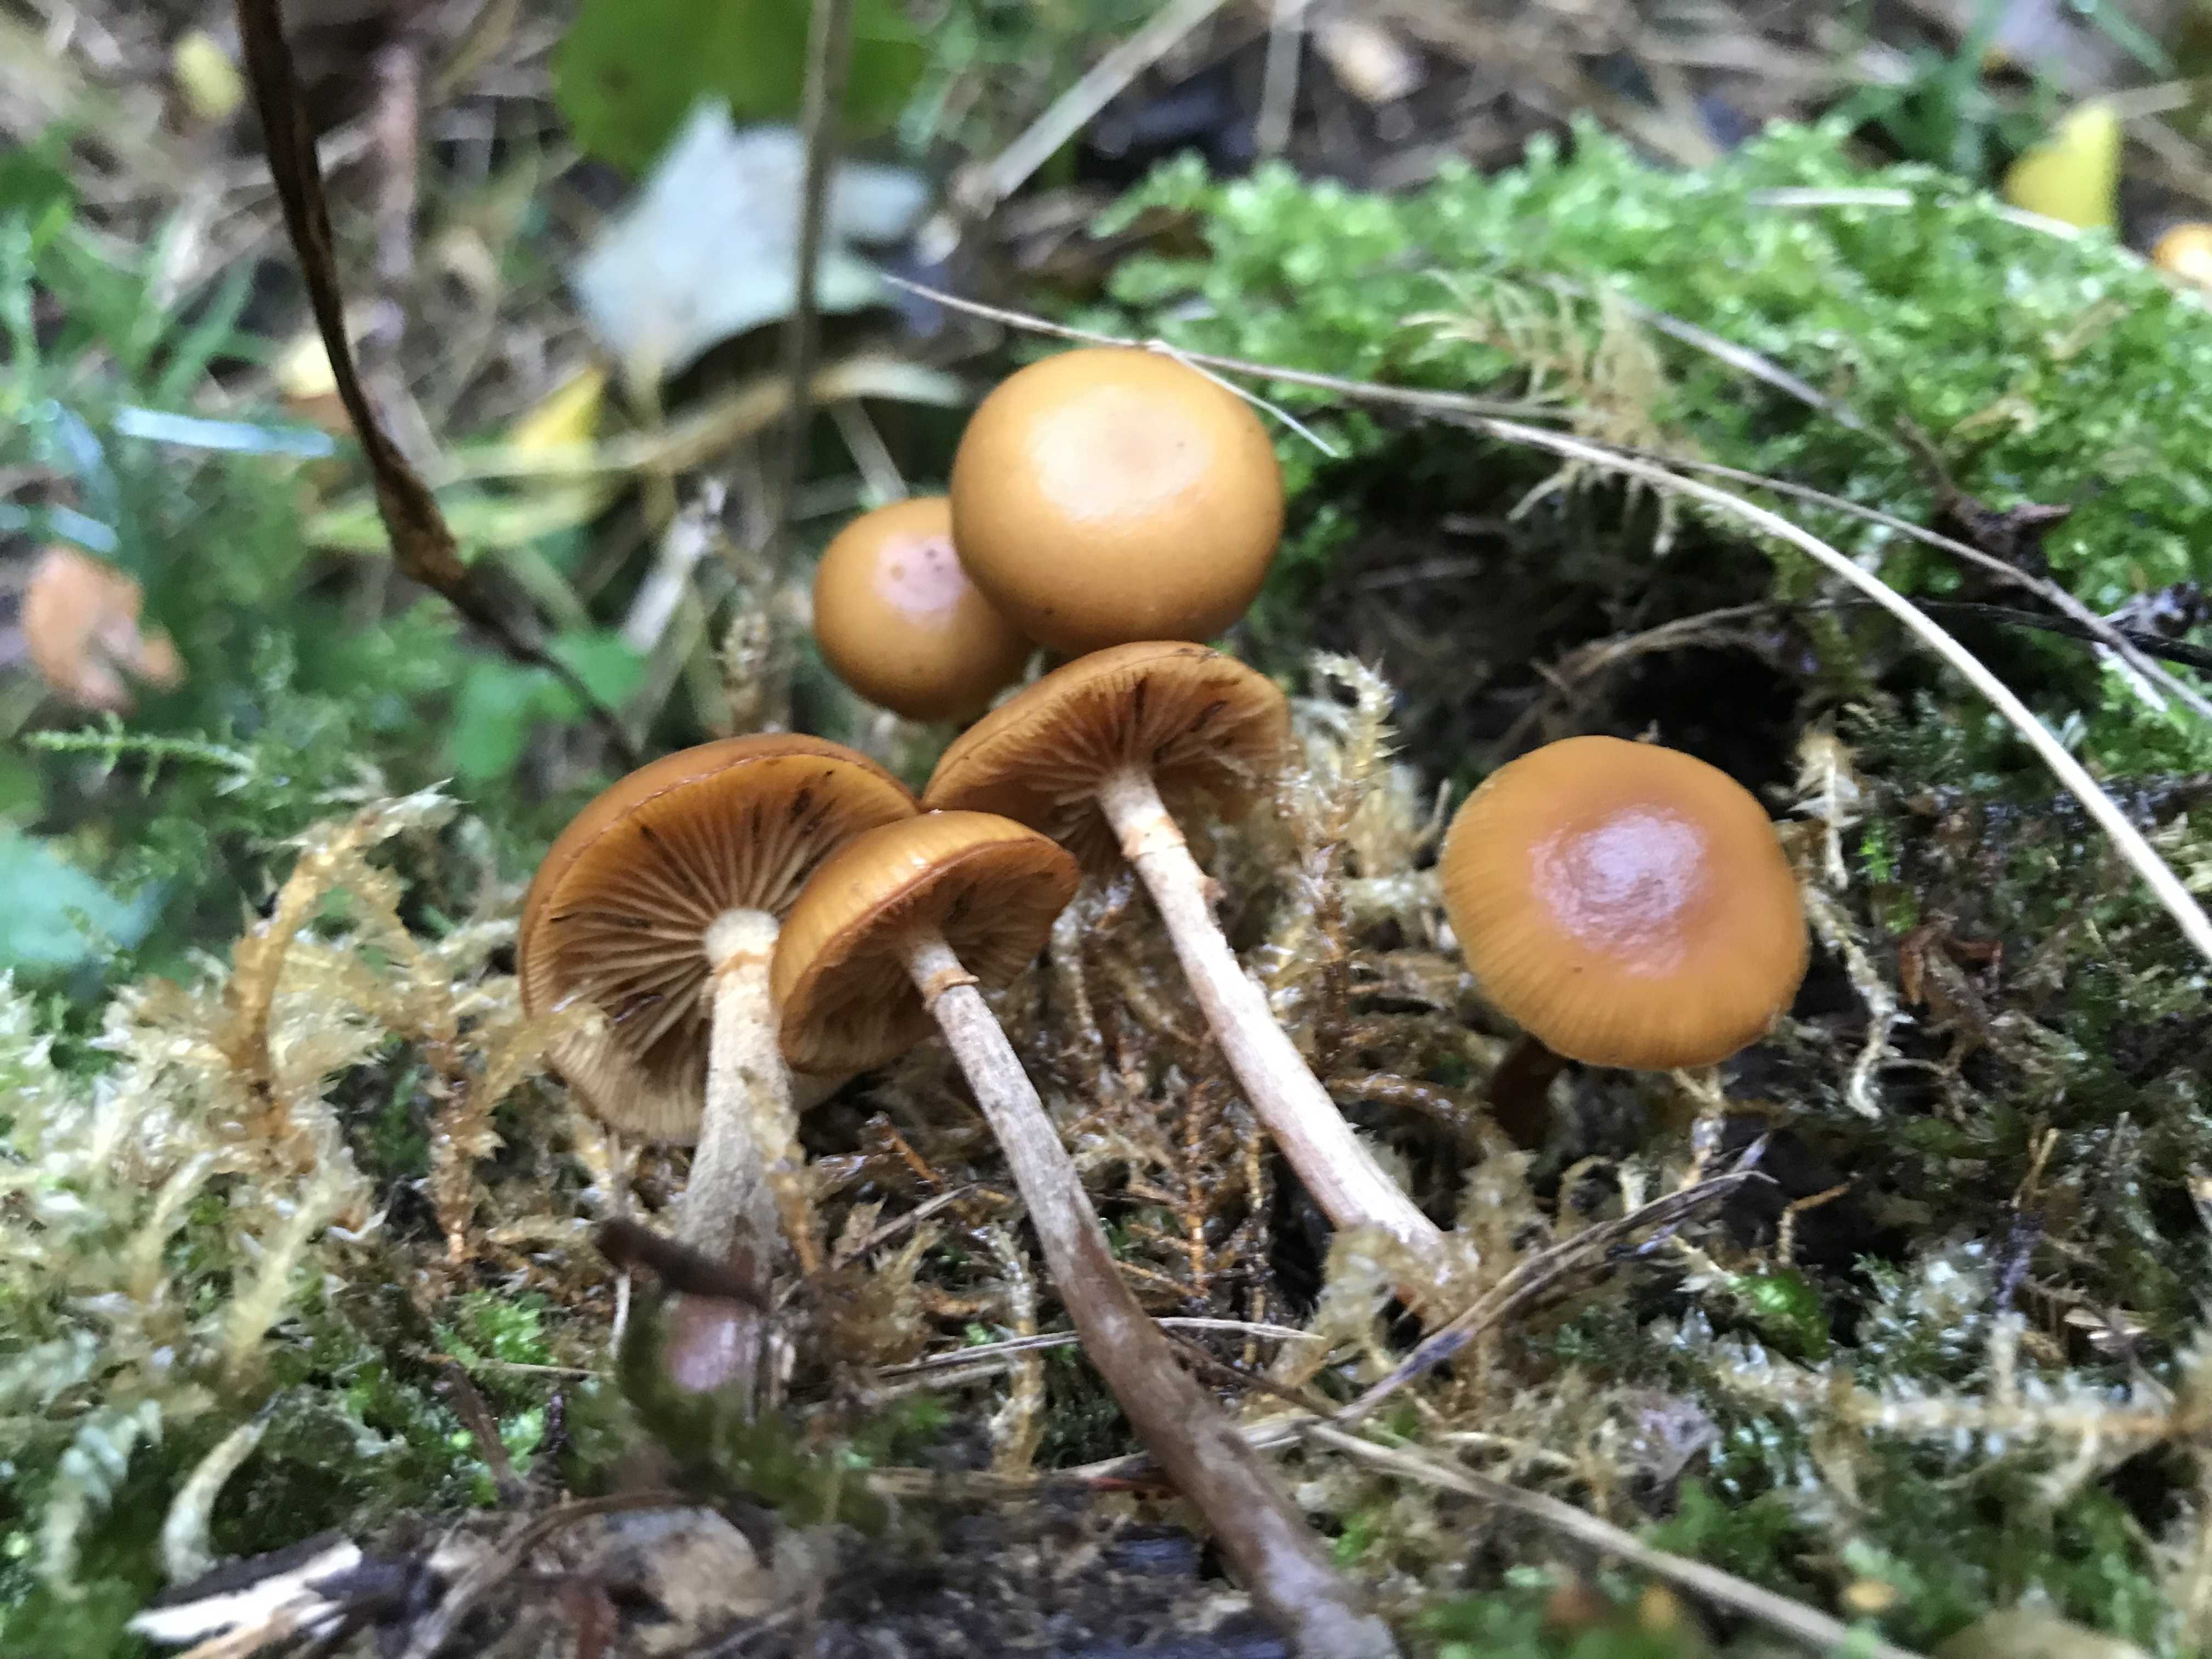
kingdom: Fungi
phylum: Basidiomycota
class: Agaricomycetes
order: Agaricales
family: Hymenogastraceae
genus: Galerina
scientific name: Galerina marginata
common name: randbæltet hjelmhat
